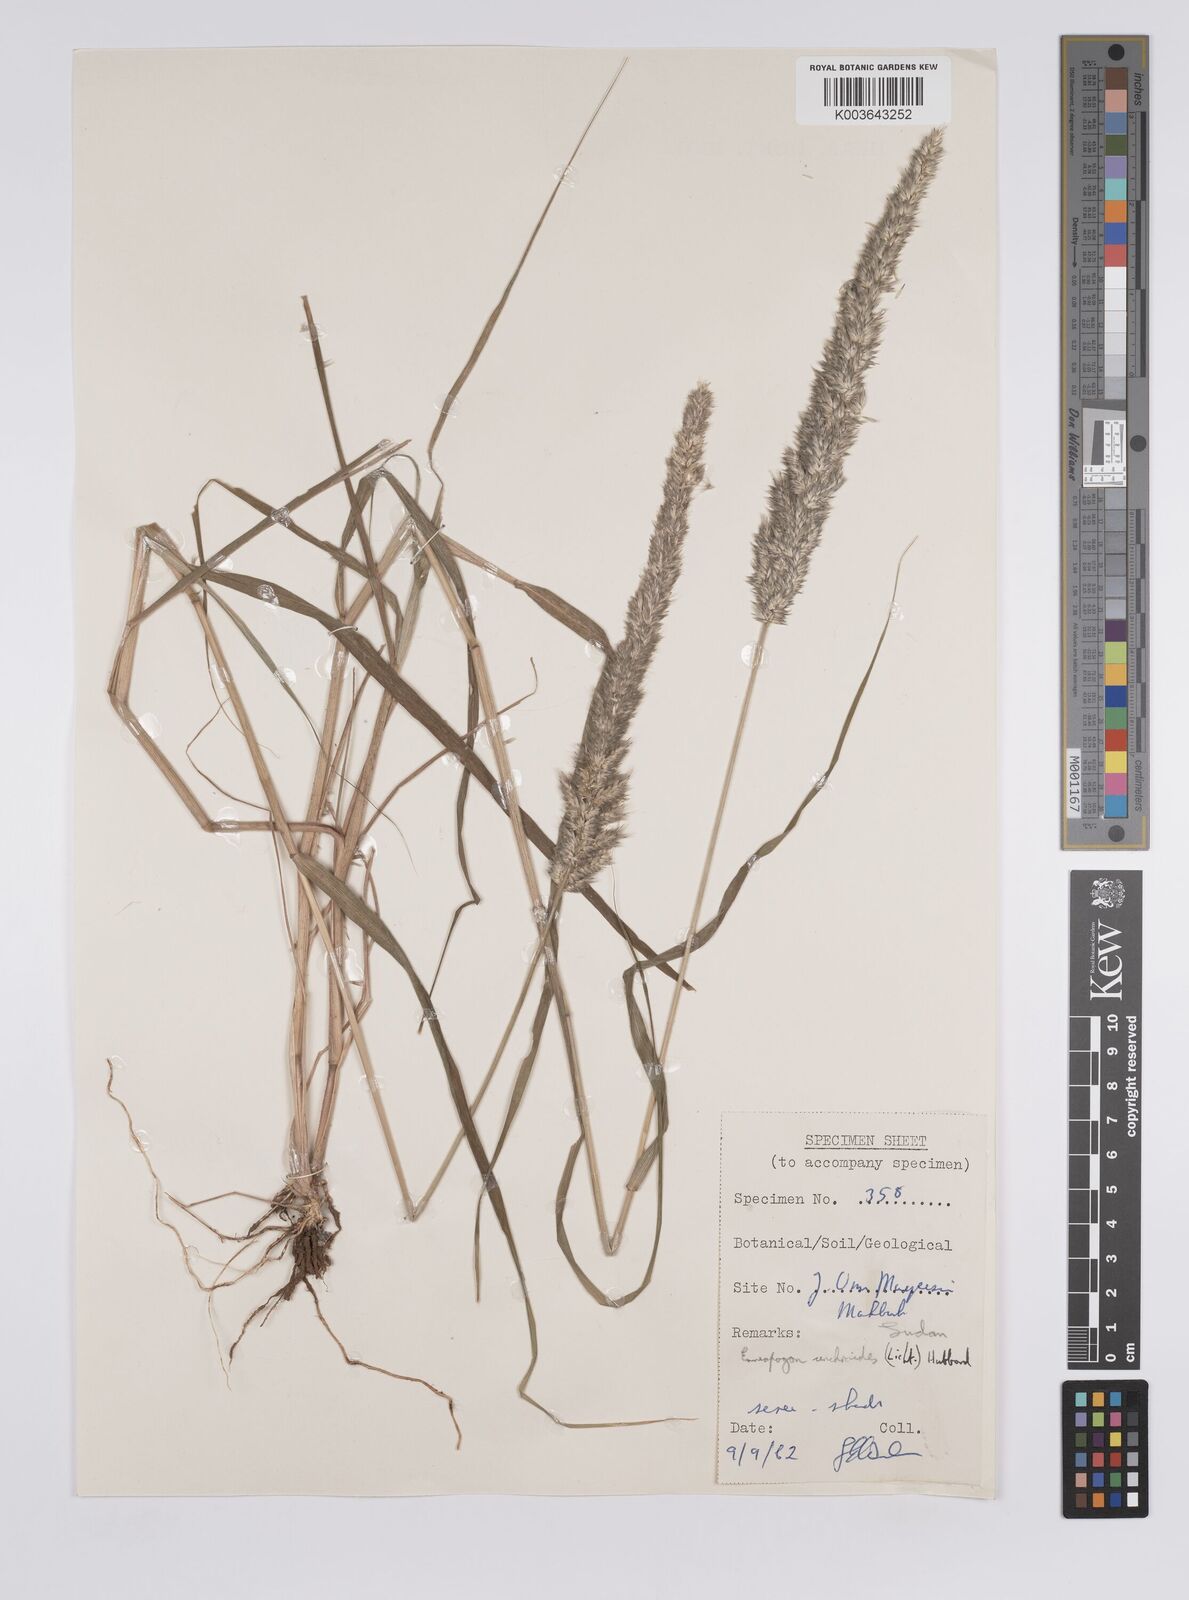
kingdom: Plantae
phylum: Tracheophyta
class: Liliopsida
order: Poales
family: Poaceae
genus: Enneapogon
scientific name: Enneapogon cenchroides
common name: Soft feather pappusgrass
